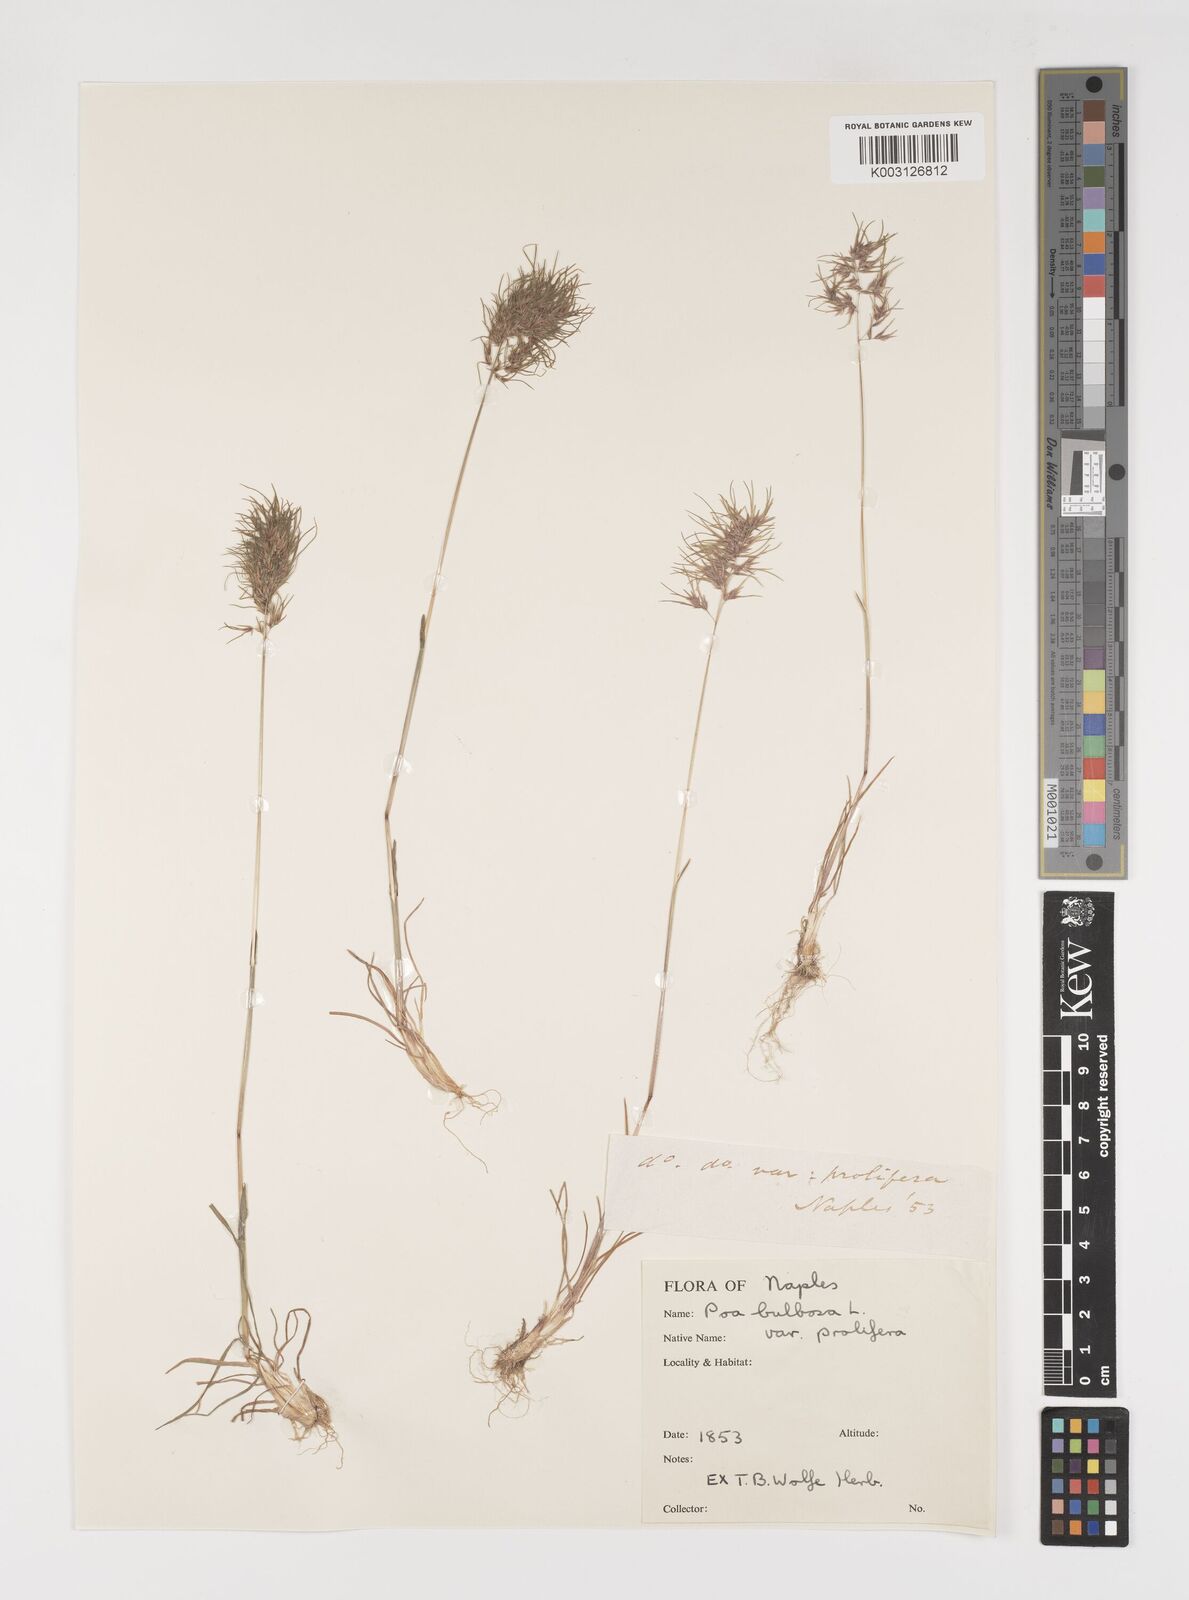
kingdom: Plantae
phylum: Tracheophyta
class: Liliopsida
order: Poales
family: Poaceae
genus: Poa
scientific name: Poa bulbosa
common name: Bulbous bluegrass
